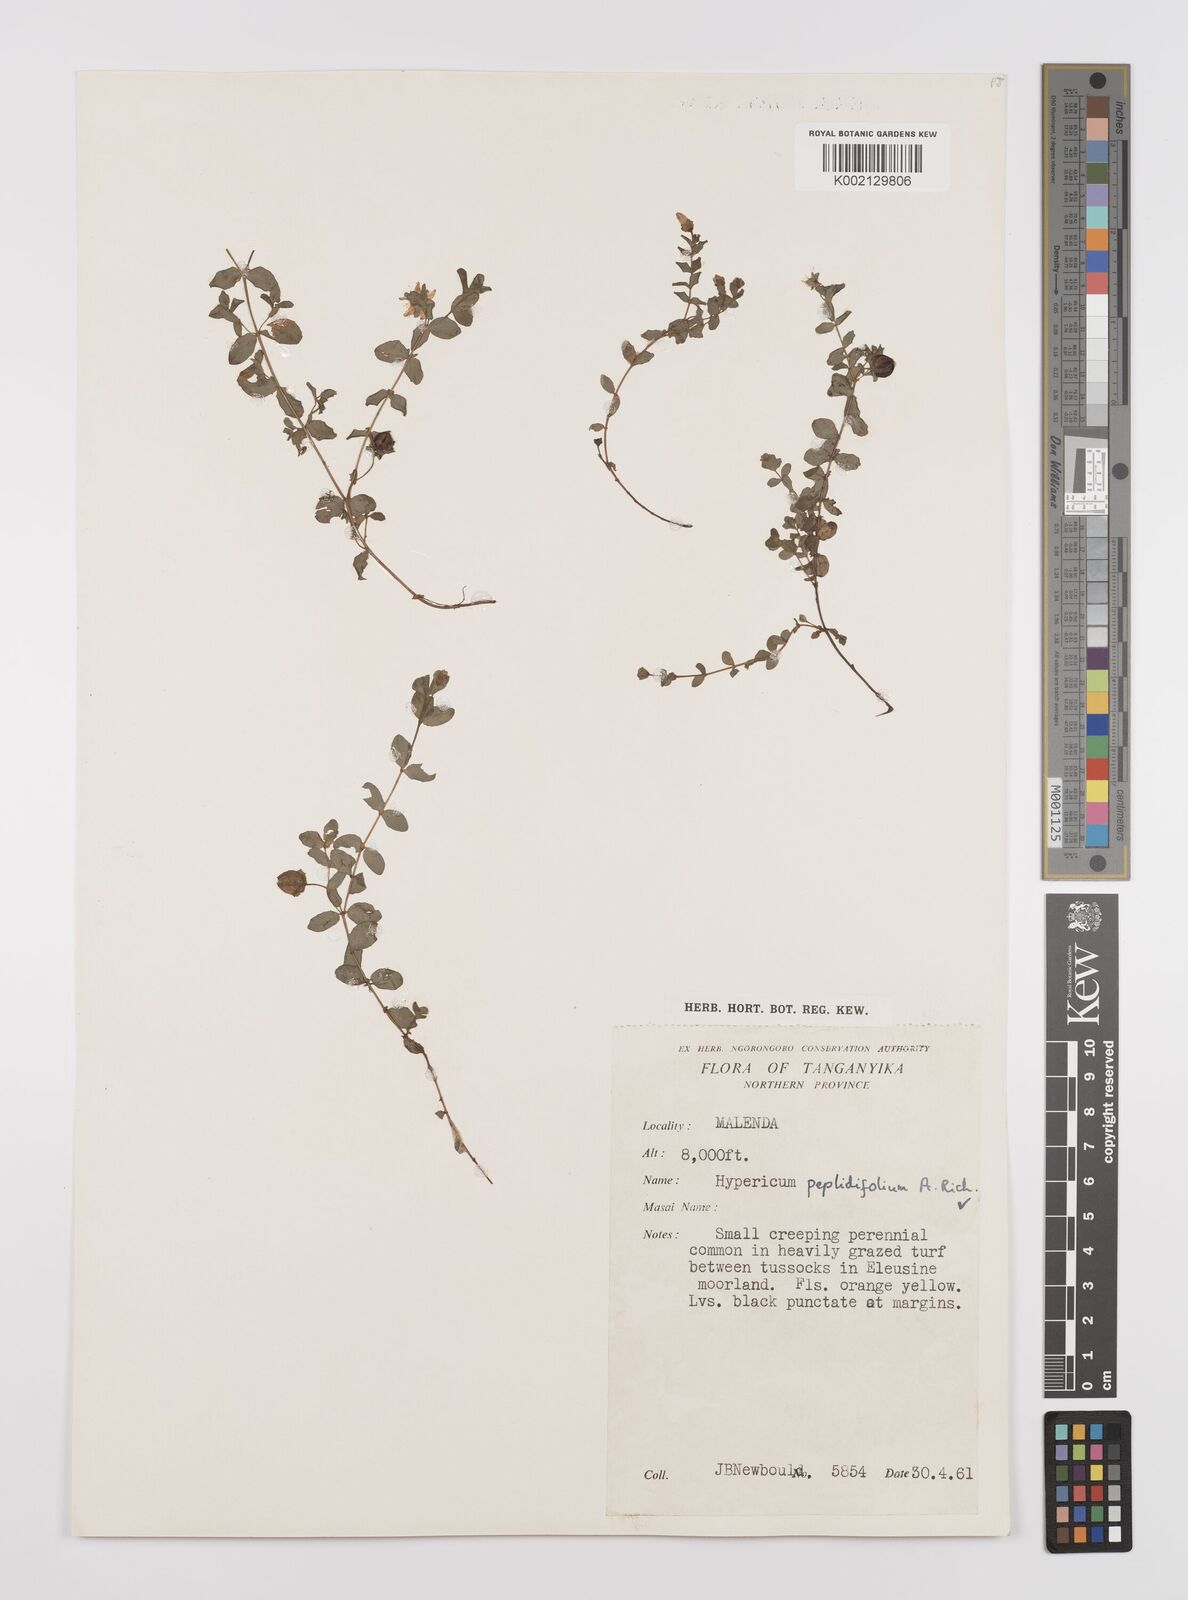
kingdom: Plantae
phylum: Tracheophyta
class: Magnoliopsida
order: Malpighiales
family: Hypericaceae
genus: Hypericum
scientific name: Hypericum peplidifolium
